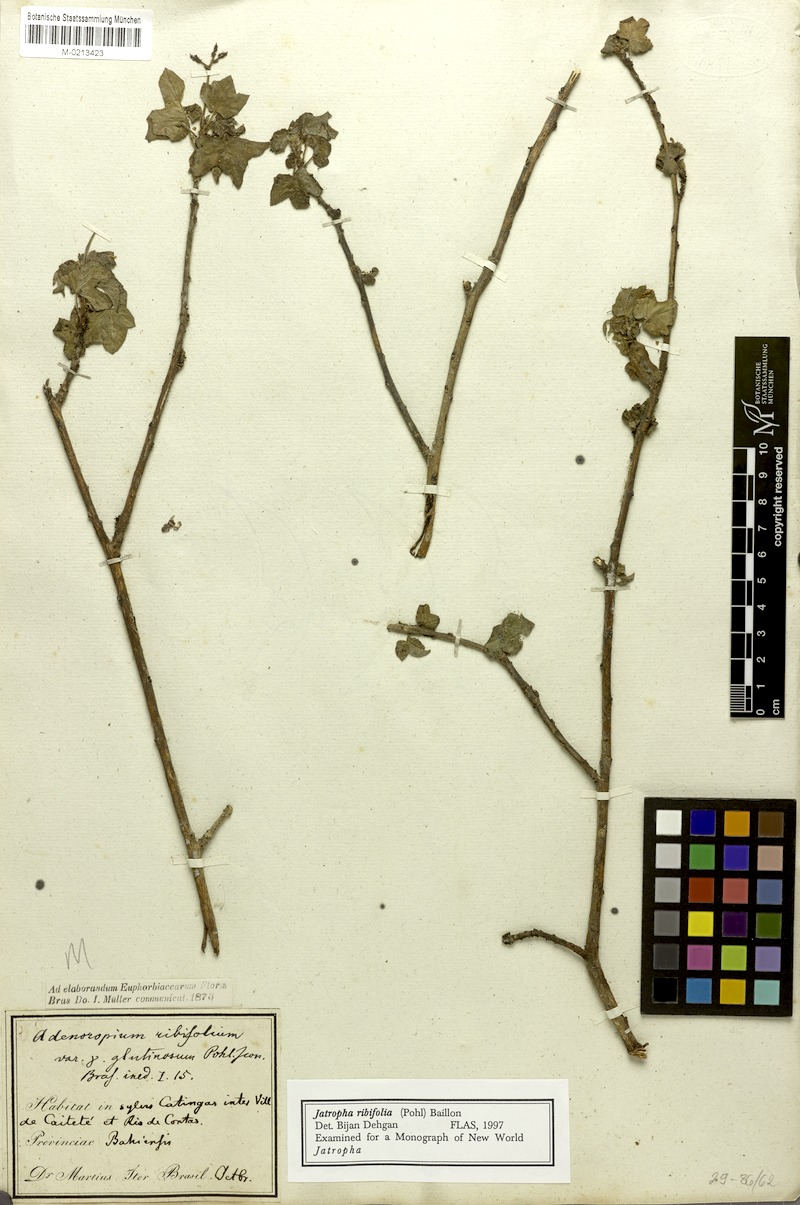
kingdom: Plantae
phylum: Tracheophyta
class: Magnoliopsida
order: Malpighiales
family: Euphorbiaceae
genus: Jatropha
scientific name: Jatropha ribifolia
